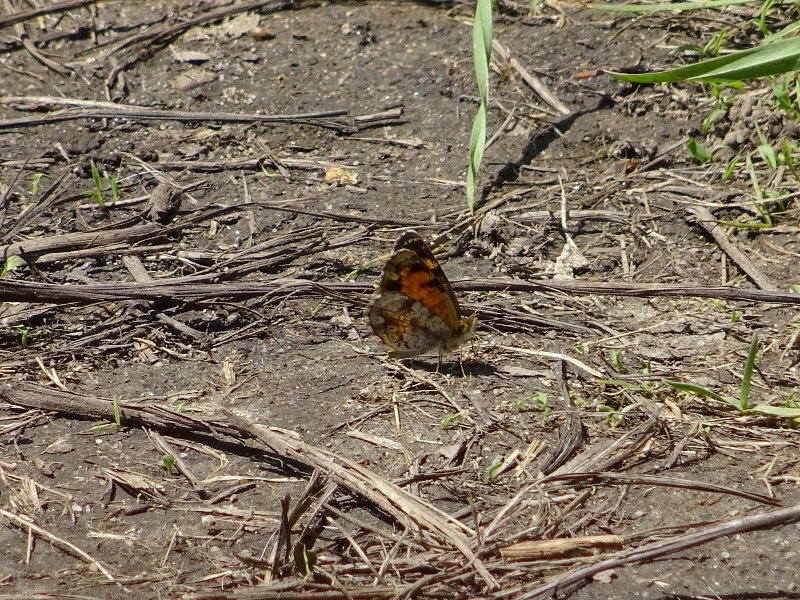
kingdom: Animalia
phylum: Arthropoda
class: Insecta
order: Lepidoptera
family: Nymphalidae
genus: Phyciodes
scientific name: Phyciodes tharos
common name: Pearl Crescent
